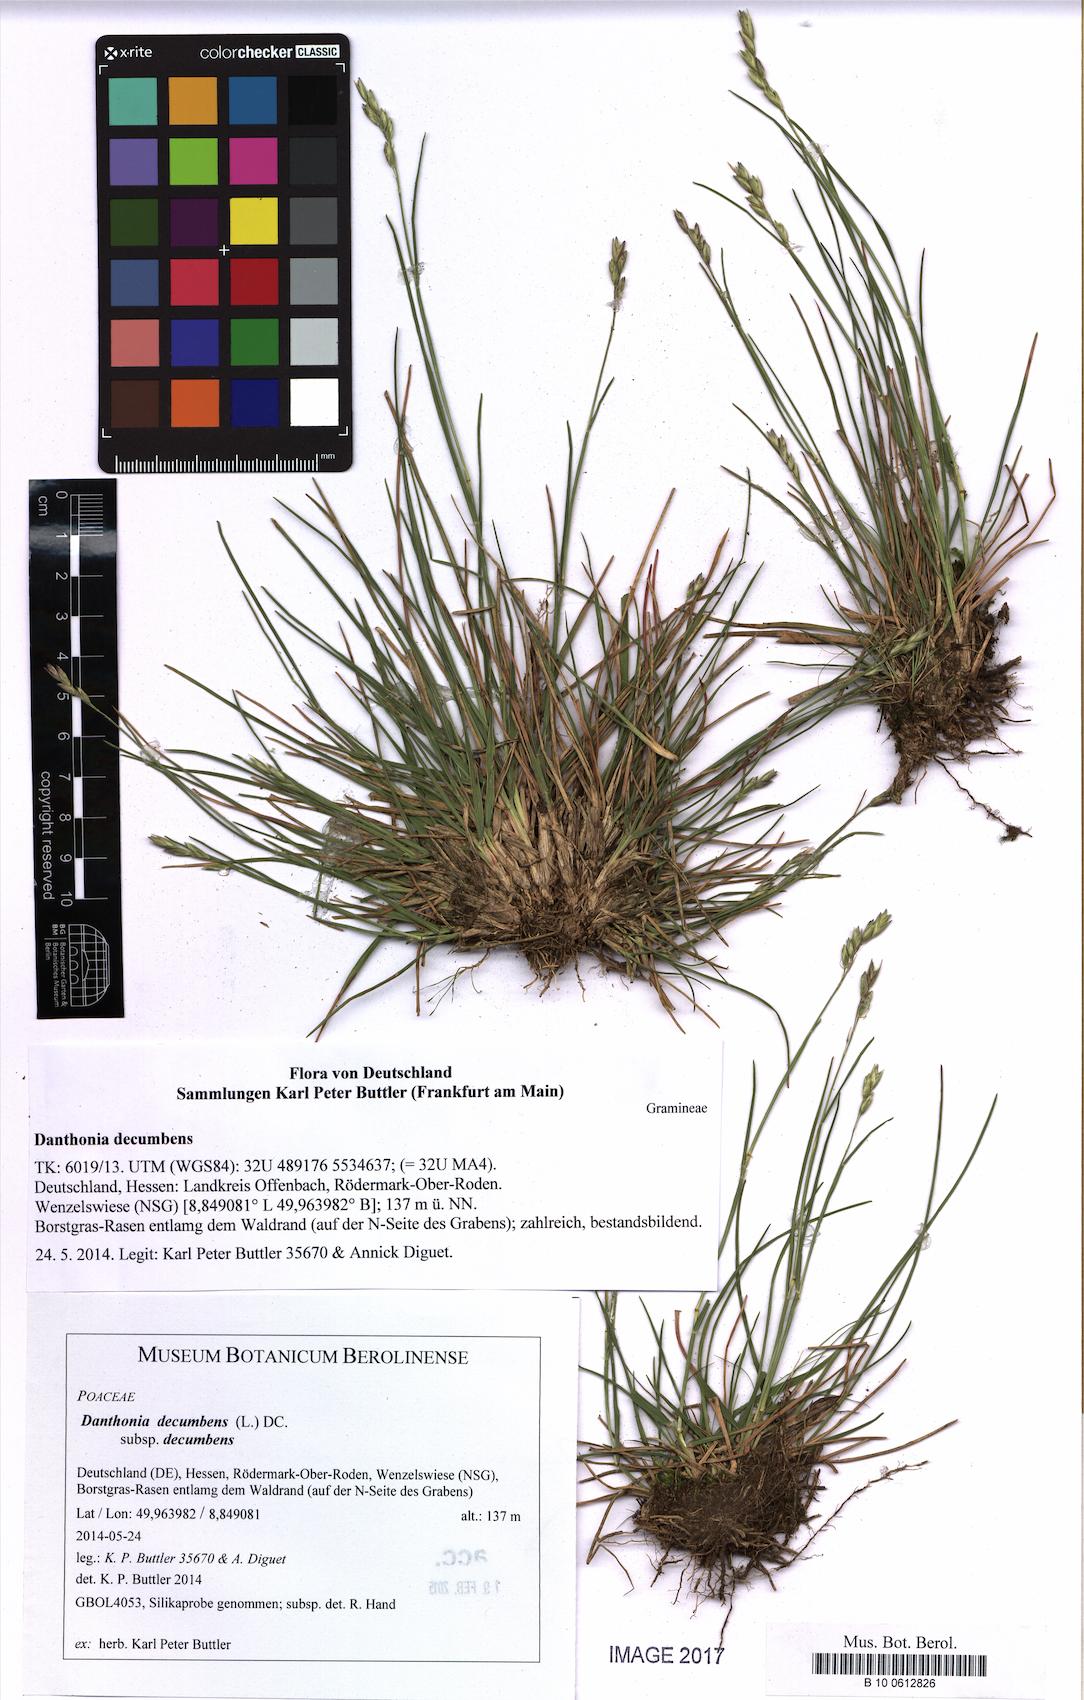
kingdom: Plantae
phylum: Tracheophyta
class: Liliopsida
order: Poales
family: Poaceae
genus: Danthonia
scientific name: Danthonia decumbens
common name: Common heathgrass
